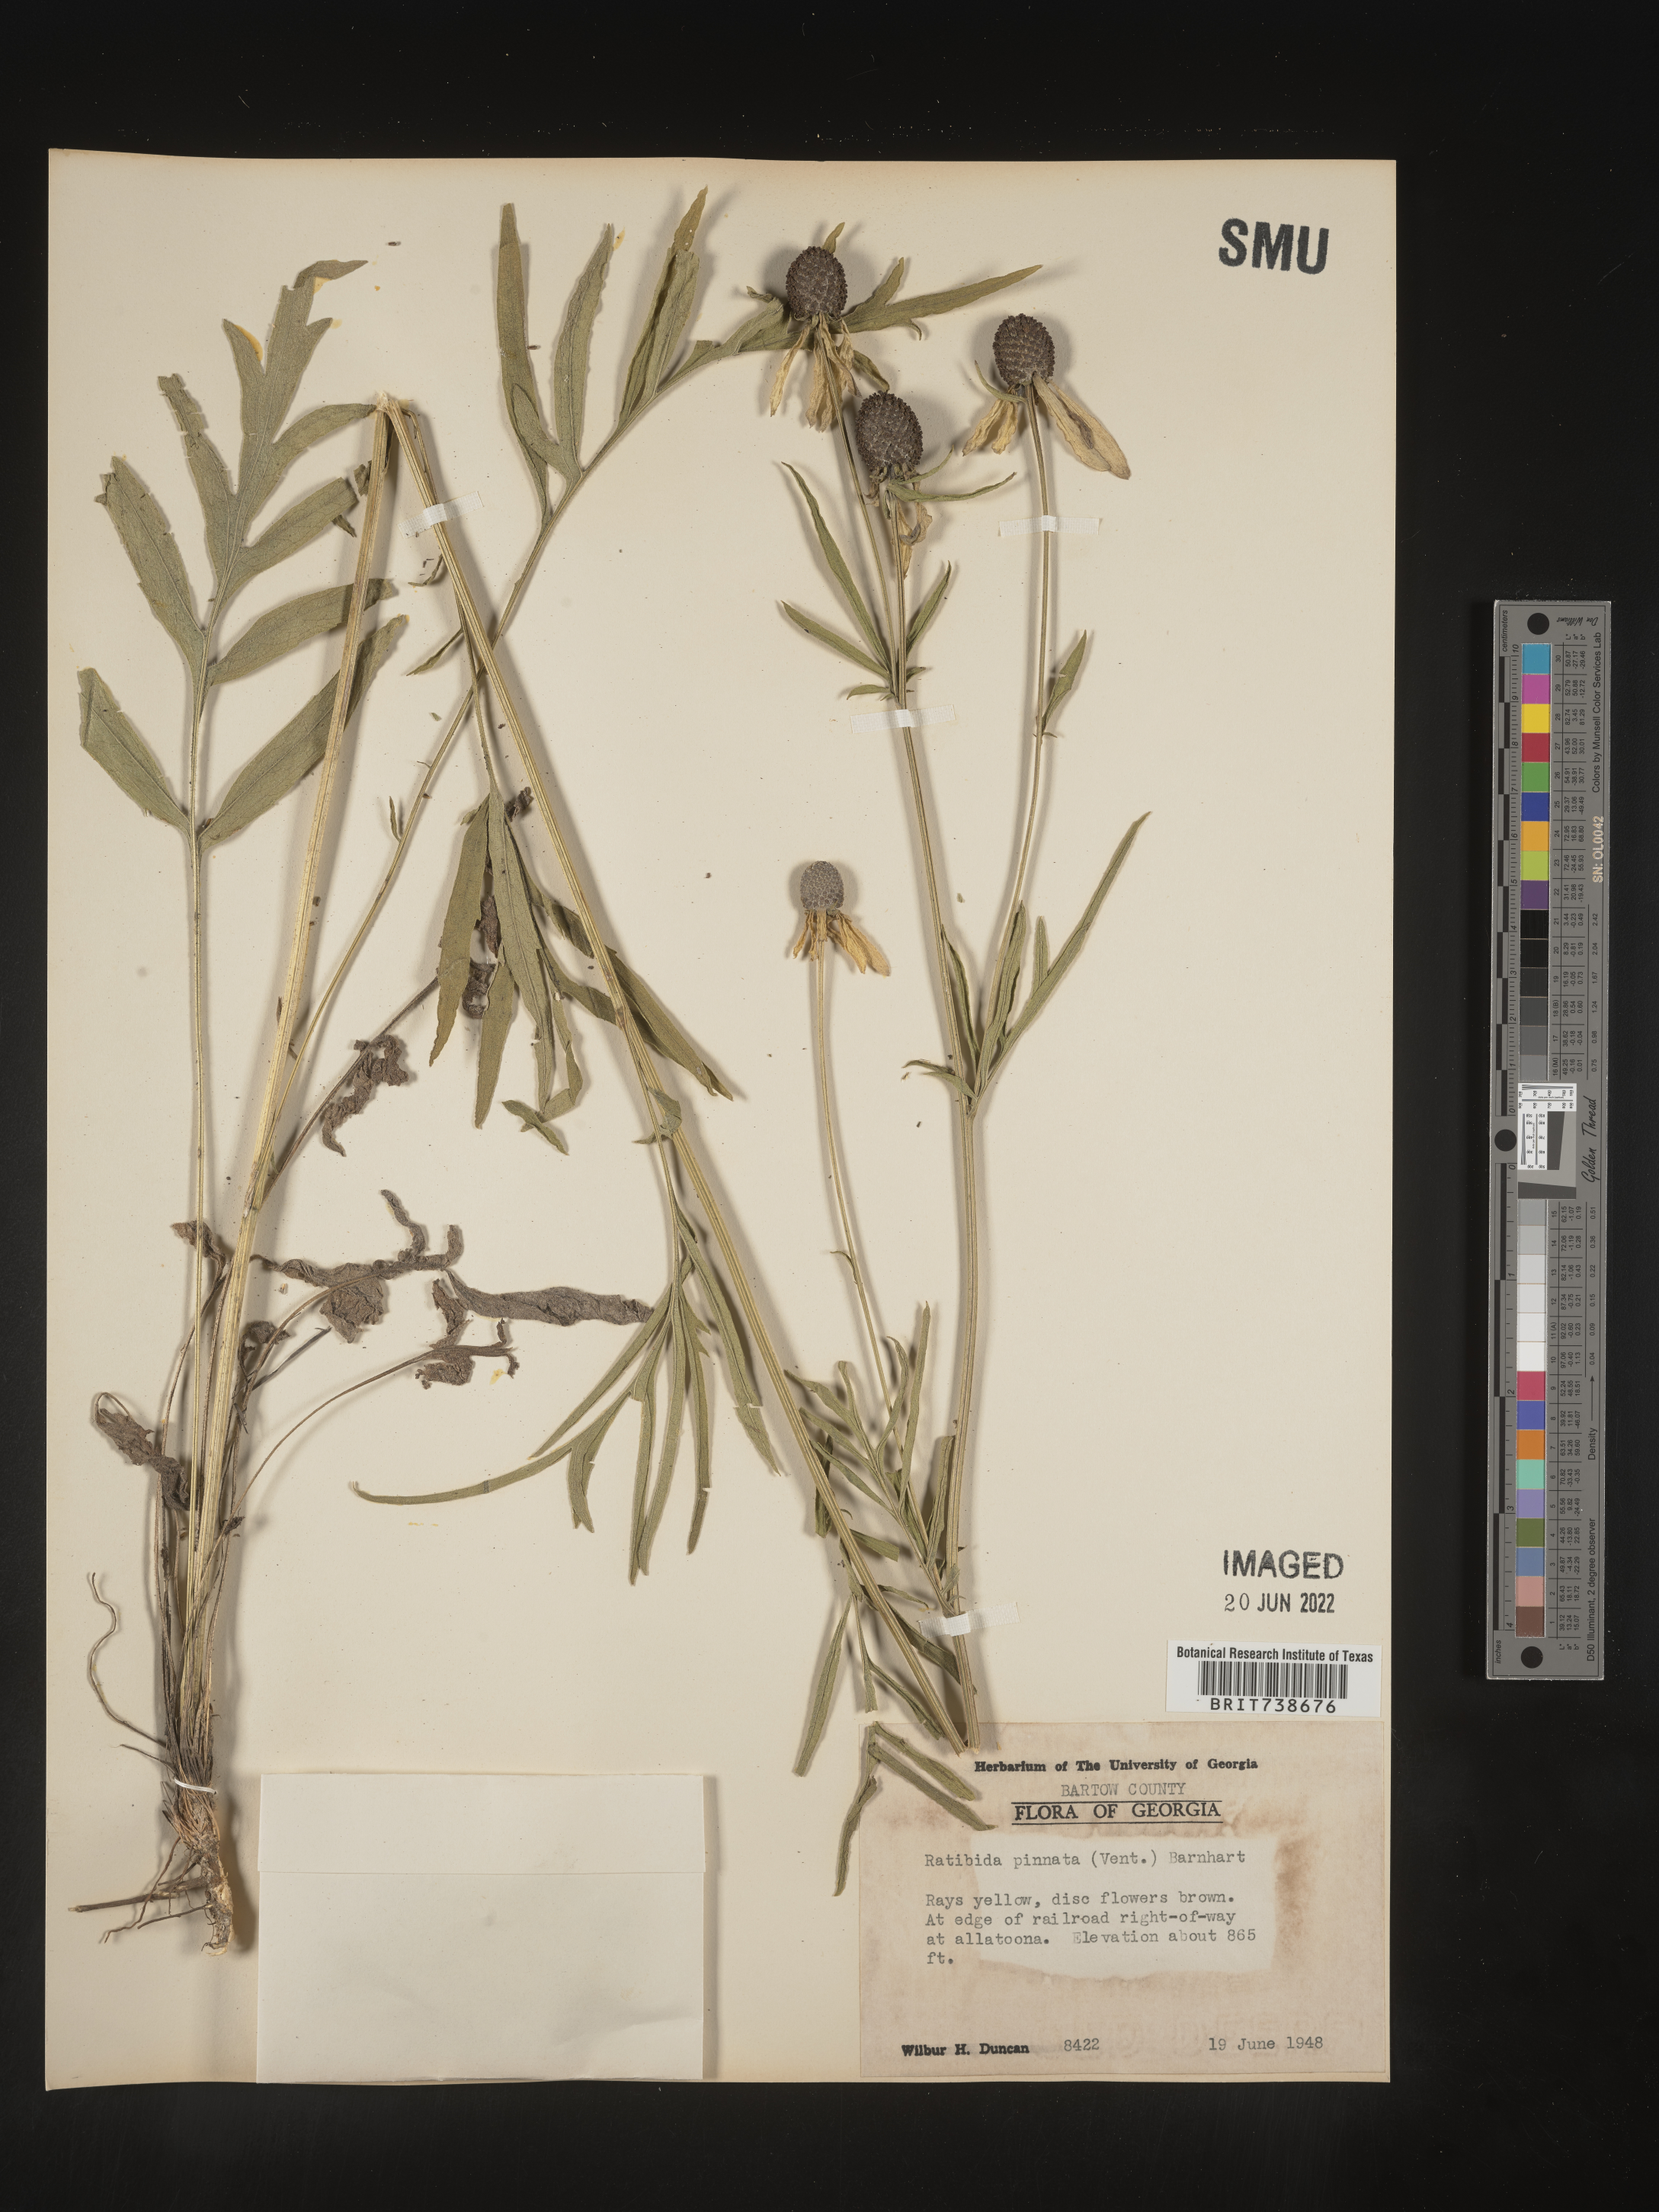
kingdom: Plantae
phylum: Tracheophyta
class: Magnoliopsida
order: Asterales
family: Asteraceae
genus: Ratibida
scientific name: Ratibida pinnata
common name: Drooping prairie-coneflower
